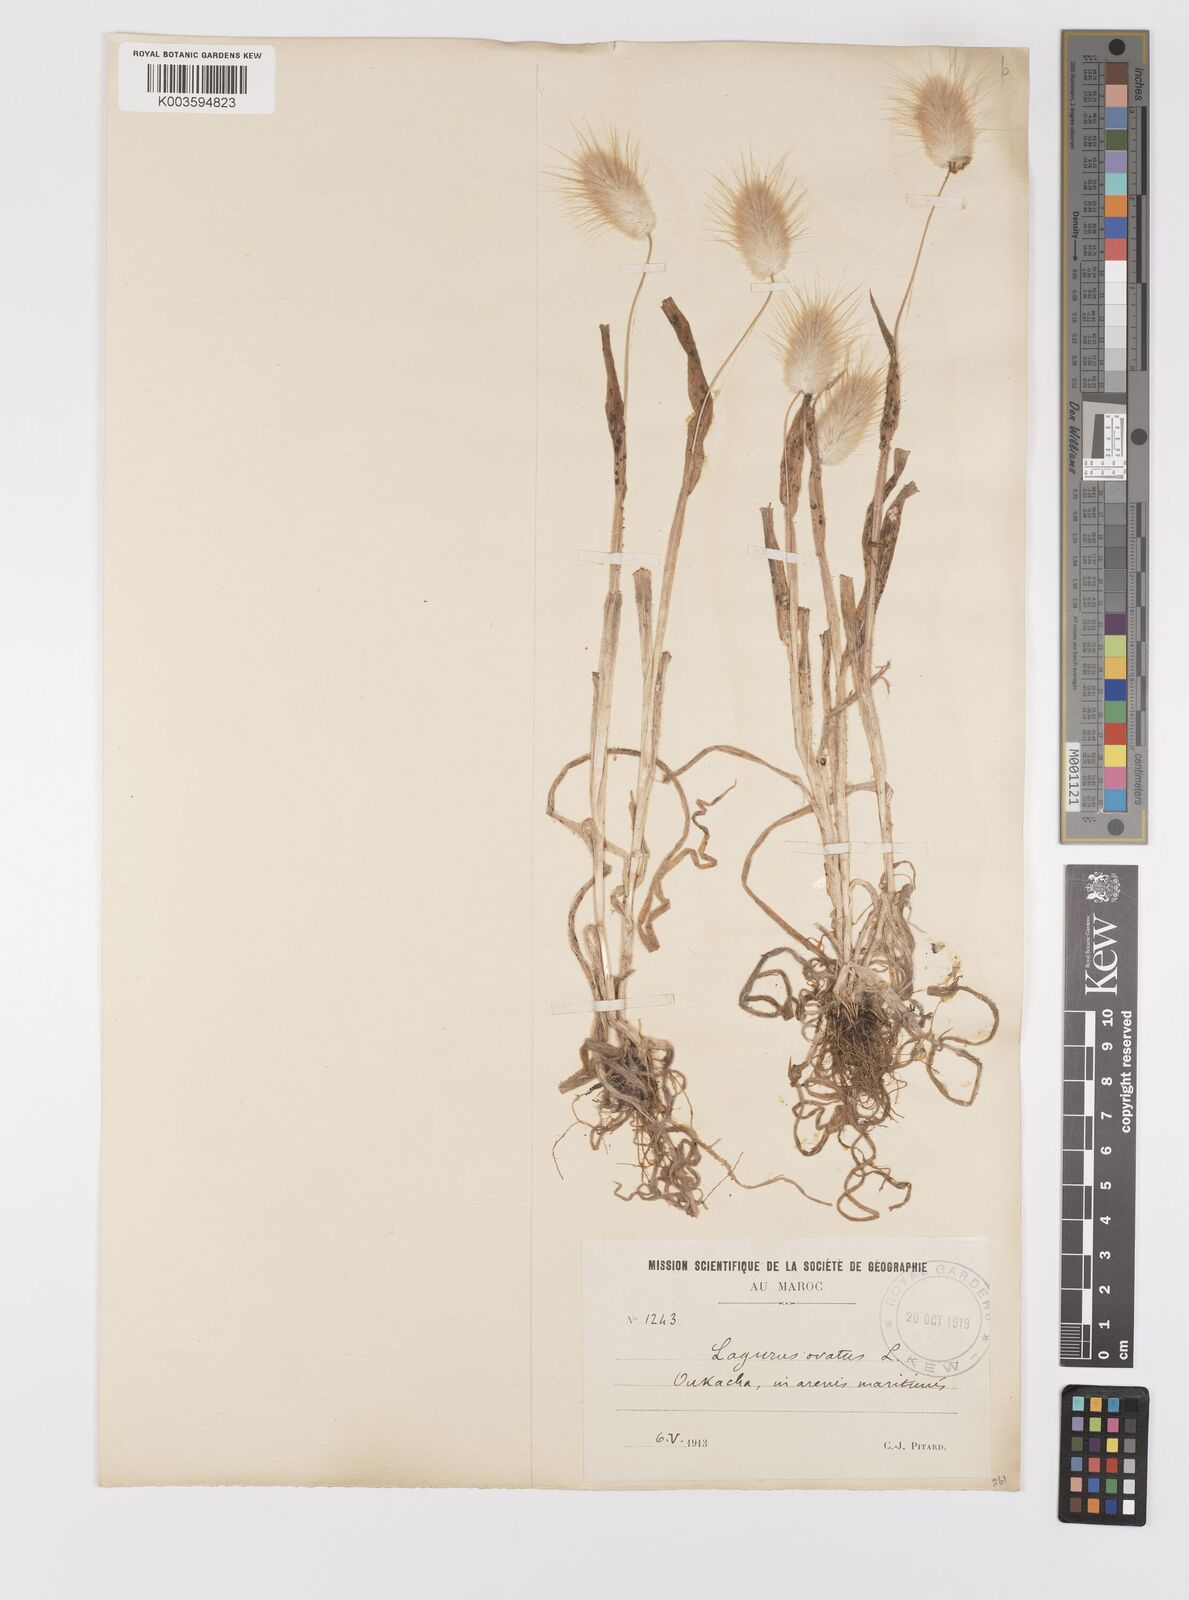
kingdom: Plantae
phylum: Tracheophyta
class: Liliopsida
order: Poales
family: Poaceae
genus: Lagurus
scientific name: Lagurus ovatus
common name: Hare's-tail
